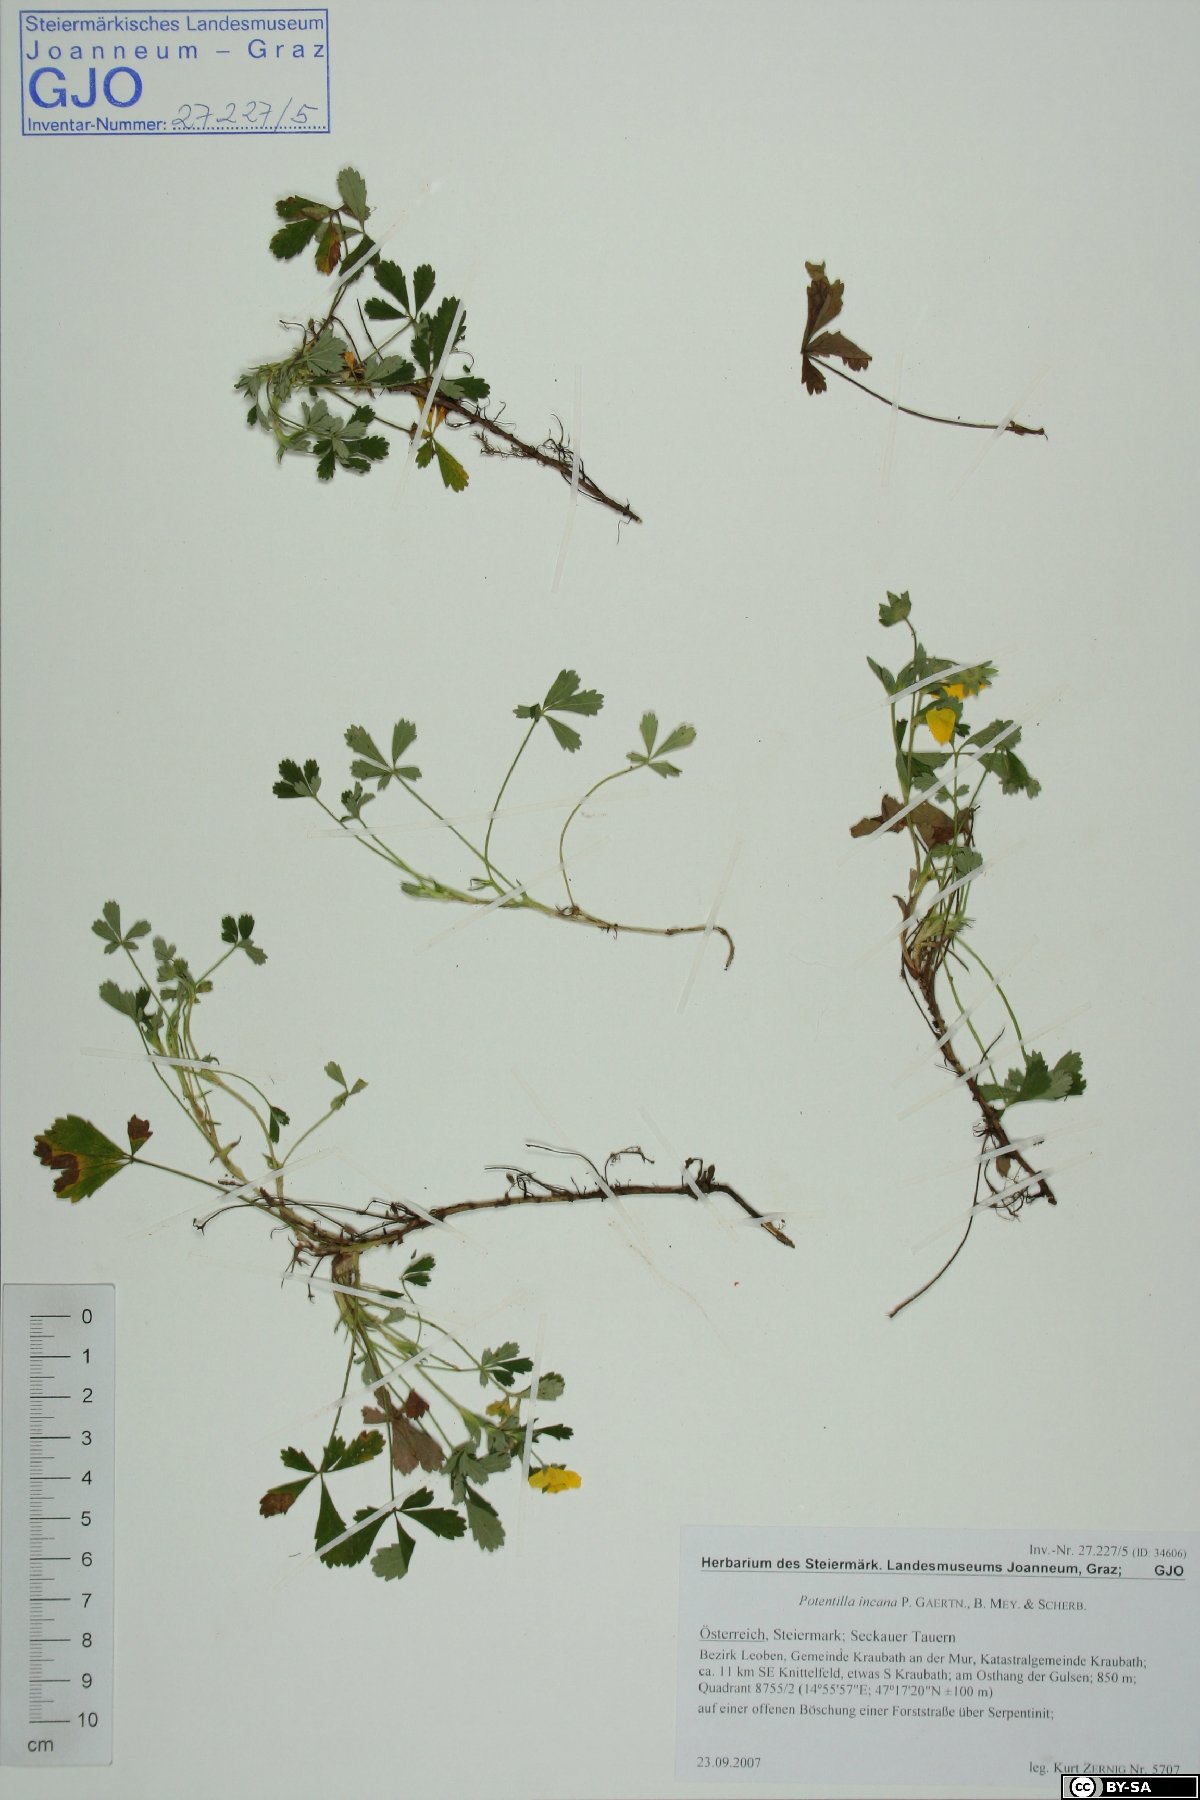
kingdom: Plantae
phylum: Tracheophyta
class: Magnoliopsida
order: Rosales
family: Rosaceae
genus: Potentilla
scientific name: Potentilla cinerea
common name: Ashy cinquefoil
